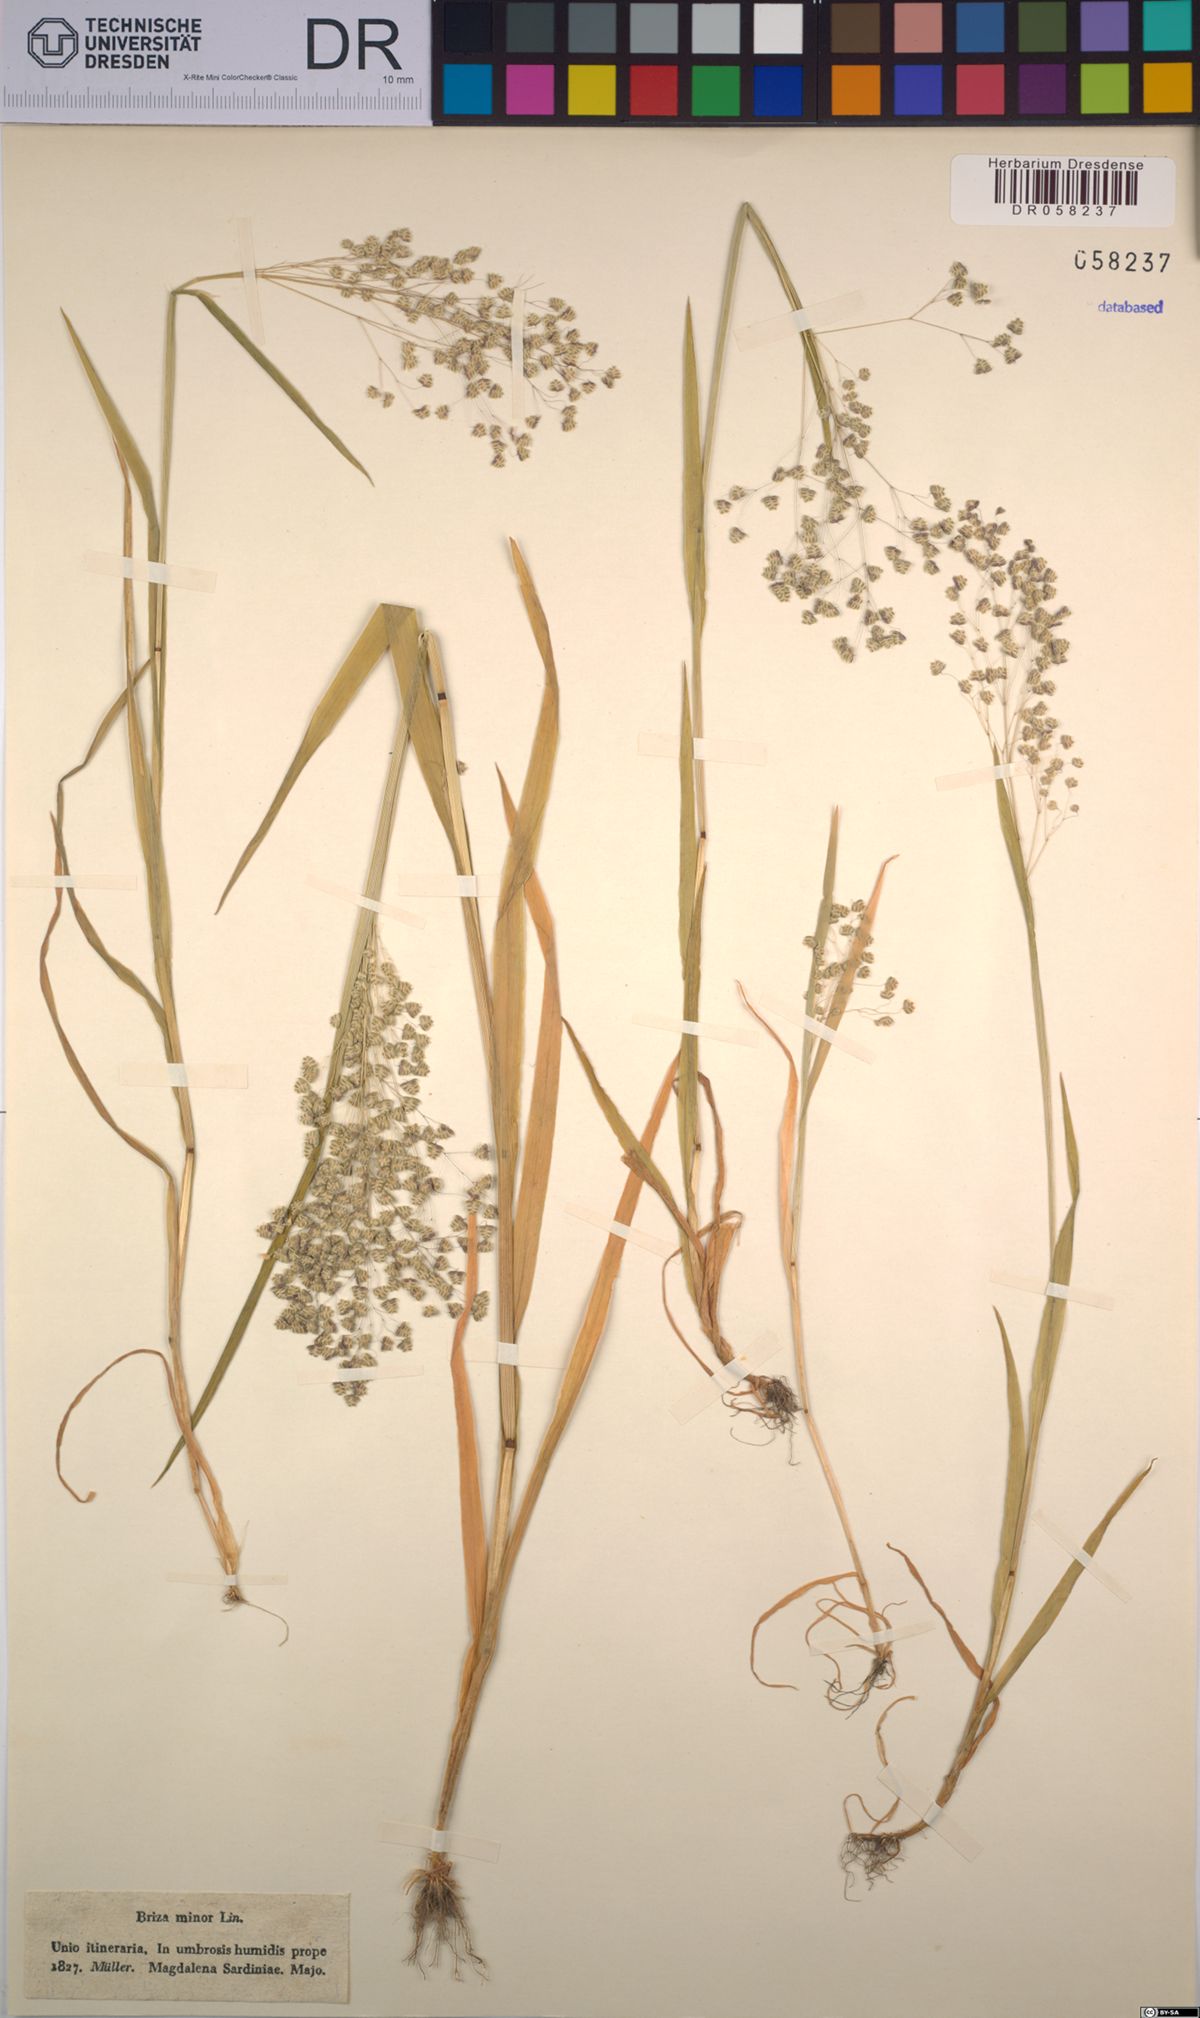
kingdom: Plantae
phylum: Tracheophyta
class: Liliopsida
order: Poales
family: Poaceae
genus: Briza
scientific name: Briza minor
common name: Lesser quaking-grass
